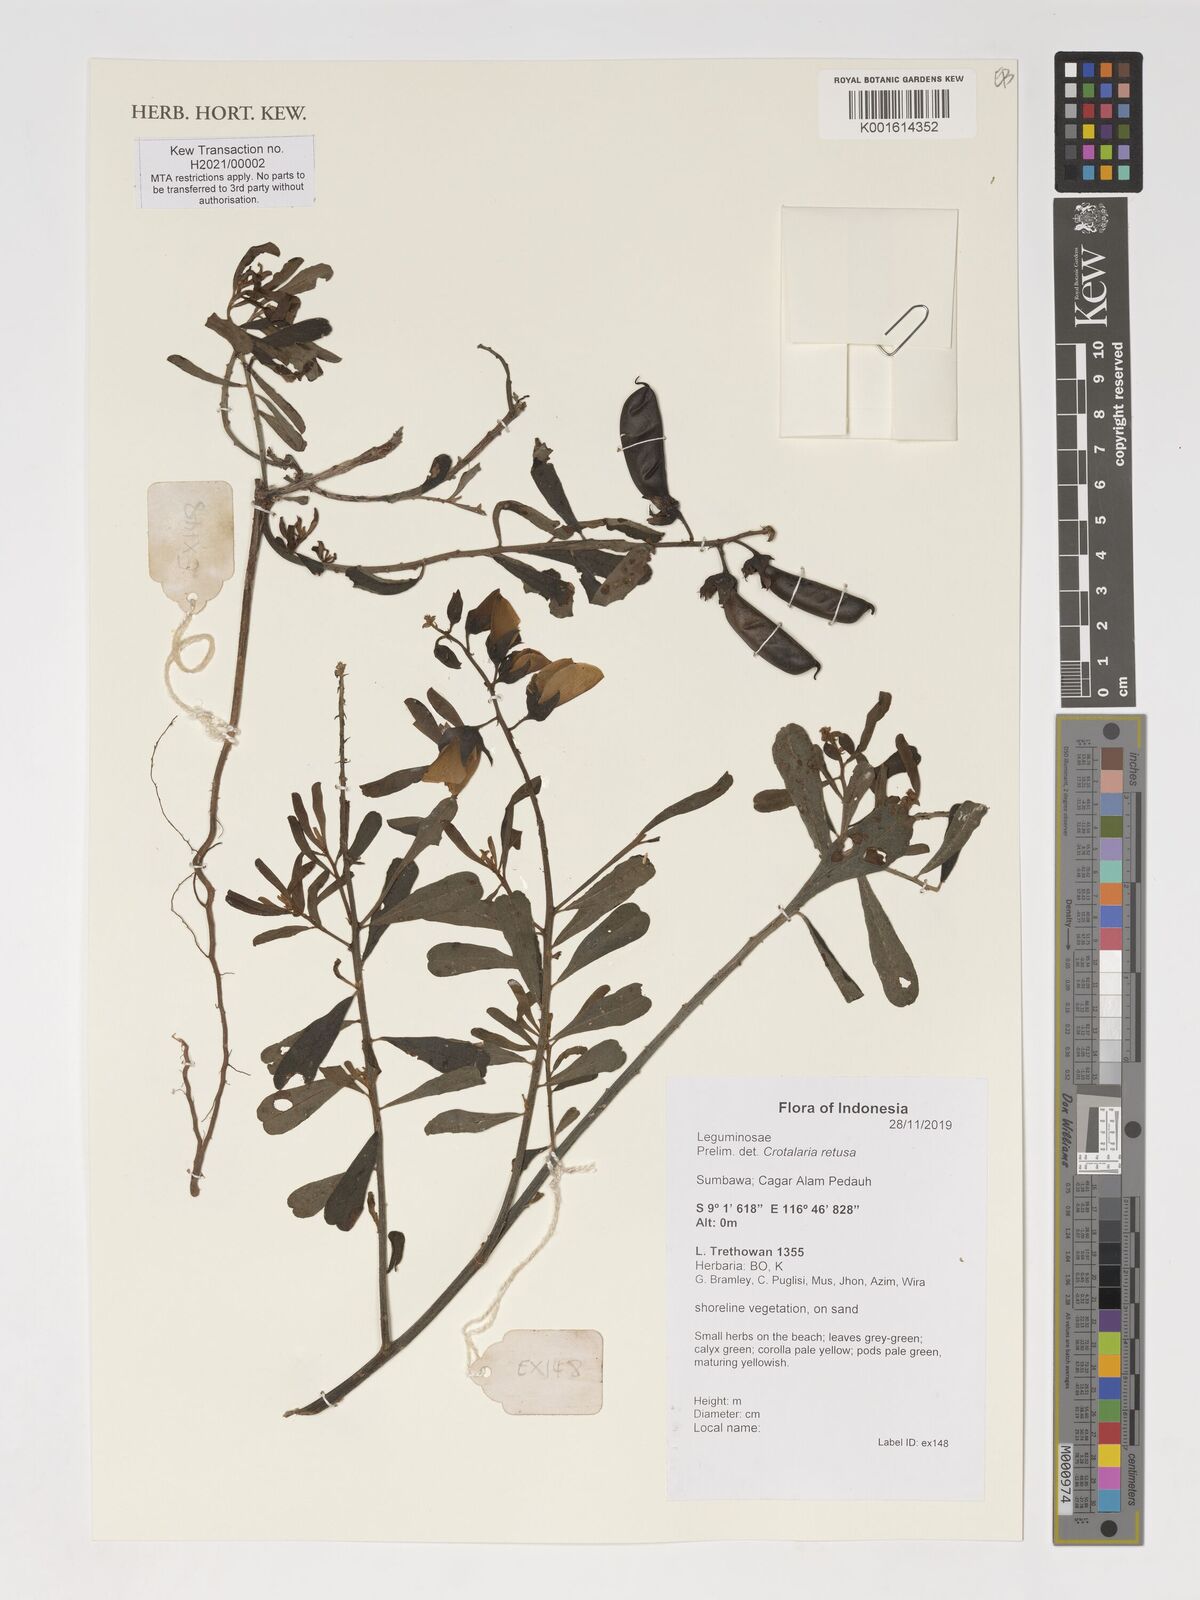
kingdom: Plantae
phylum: Tracheophyta
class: Magnoliopsida
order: Fabales
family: Fabaceae
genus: Crotalaria
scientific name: Crotalaria retusa
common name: Rattleweed
